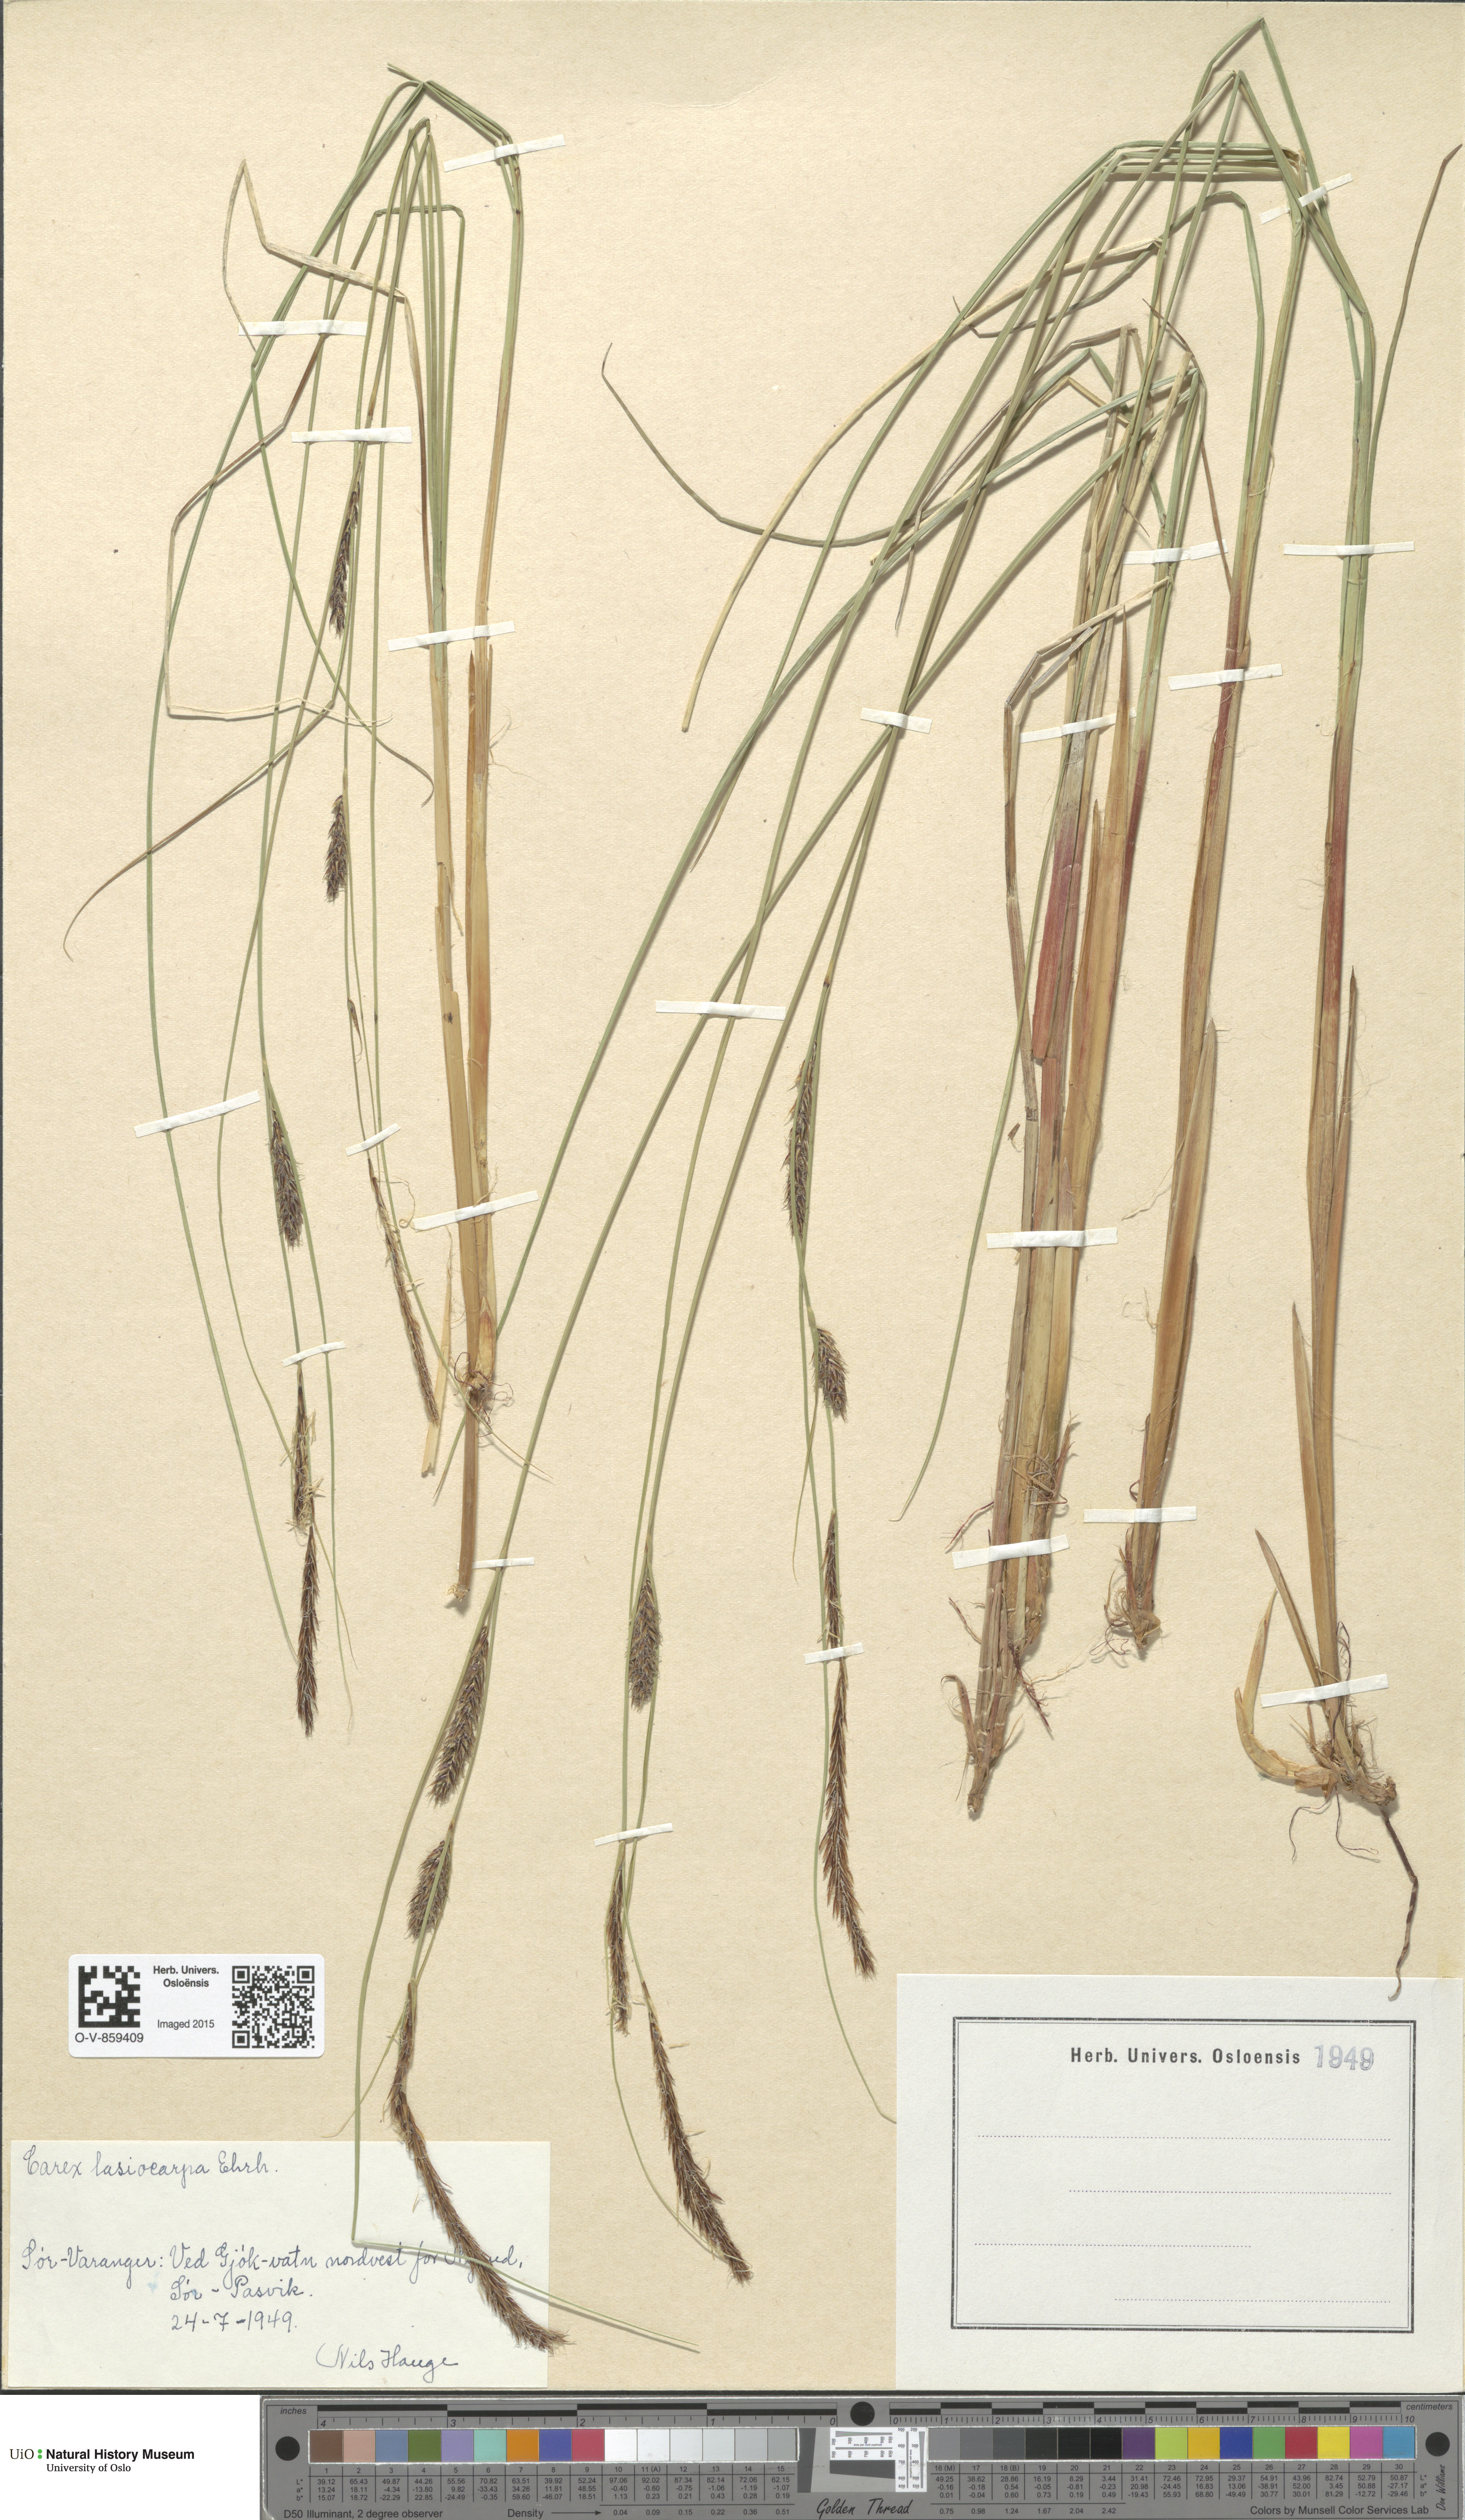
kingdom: Plantae
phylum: Tracheophyta
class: Liliopsida
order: Poales
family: Cyperaceae
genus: Carex
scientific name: Carex lasiocarpa
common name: Slender sedge
